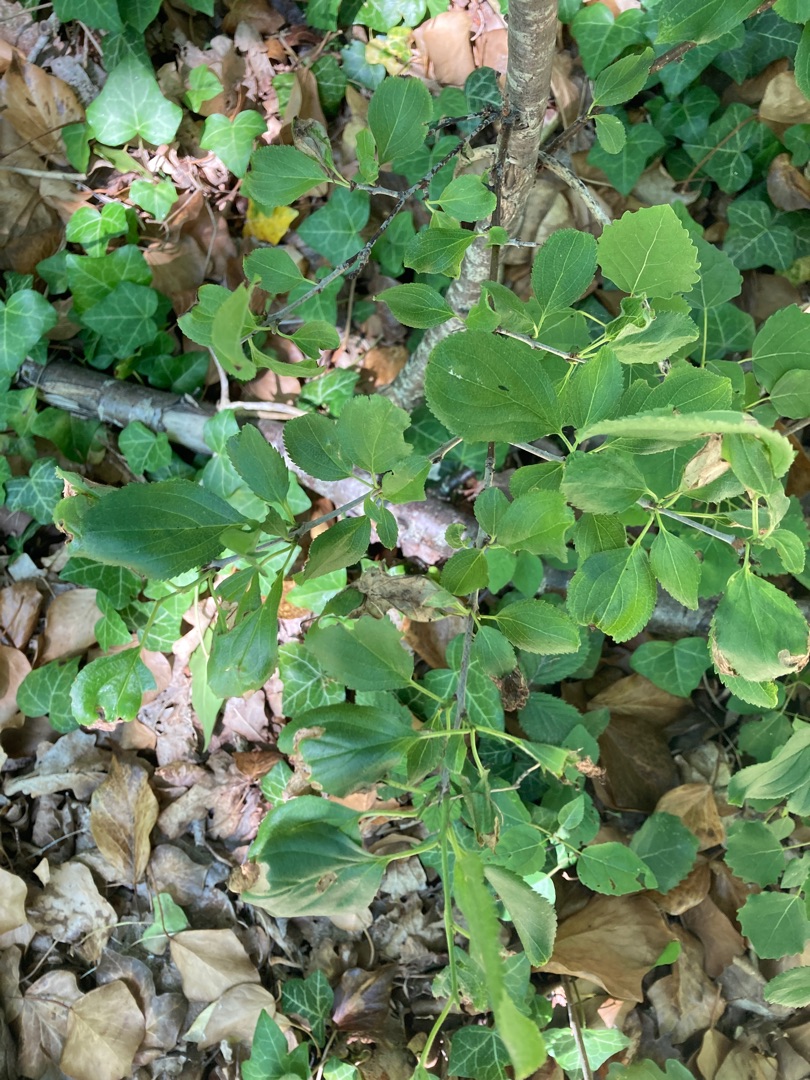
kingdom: Plantae
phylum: Tracheophyta
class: Magnoliopsida
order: Rosales
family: Rhamnaceae
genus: Rhamnus
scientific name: Rhamnus cathartica
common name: Vrietorn
